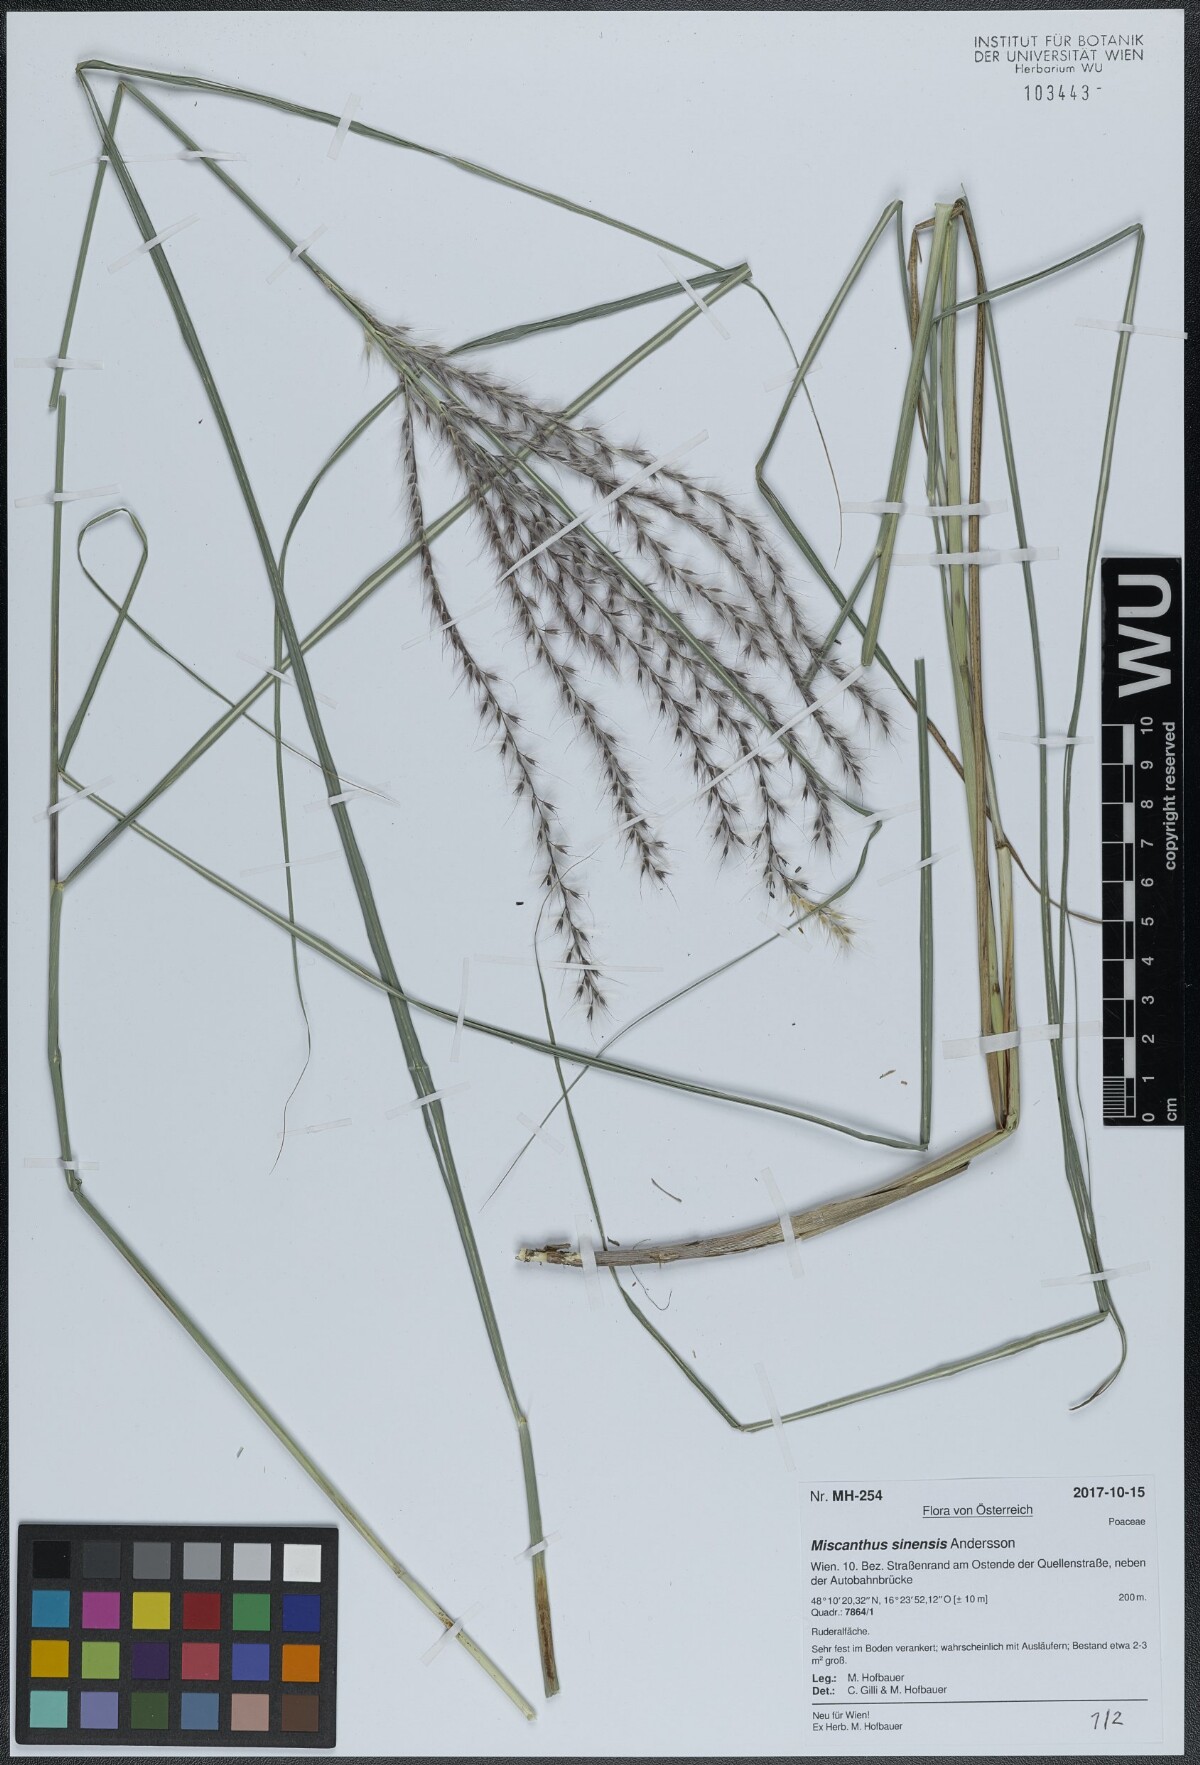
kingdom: Plantae
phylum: Tracheophyta
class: Liliopsida
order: Poales
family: Poaceae
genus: Miscanthus
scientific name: Miscanthus sinensis
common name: Chinese silvergrass
